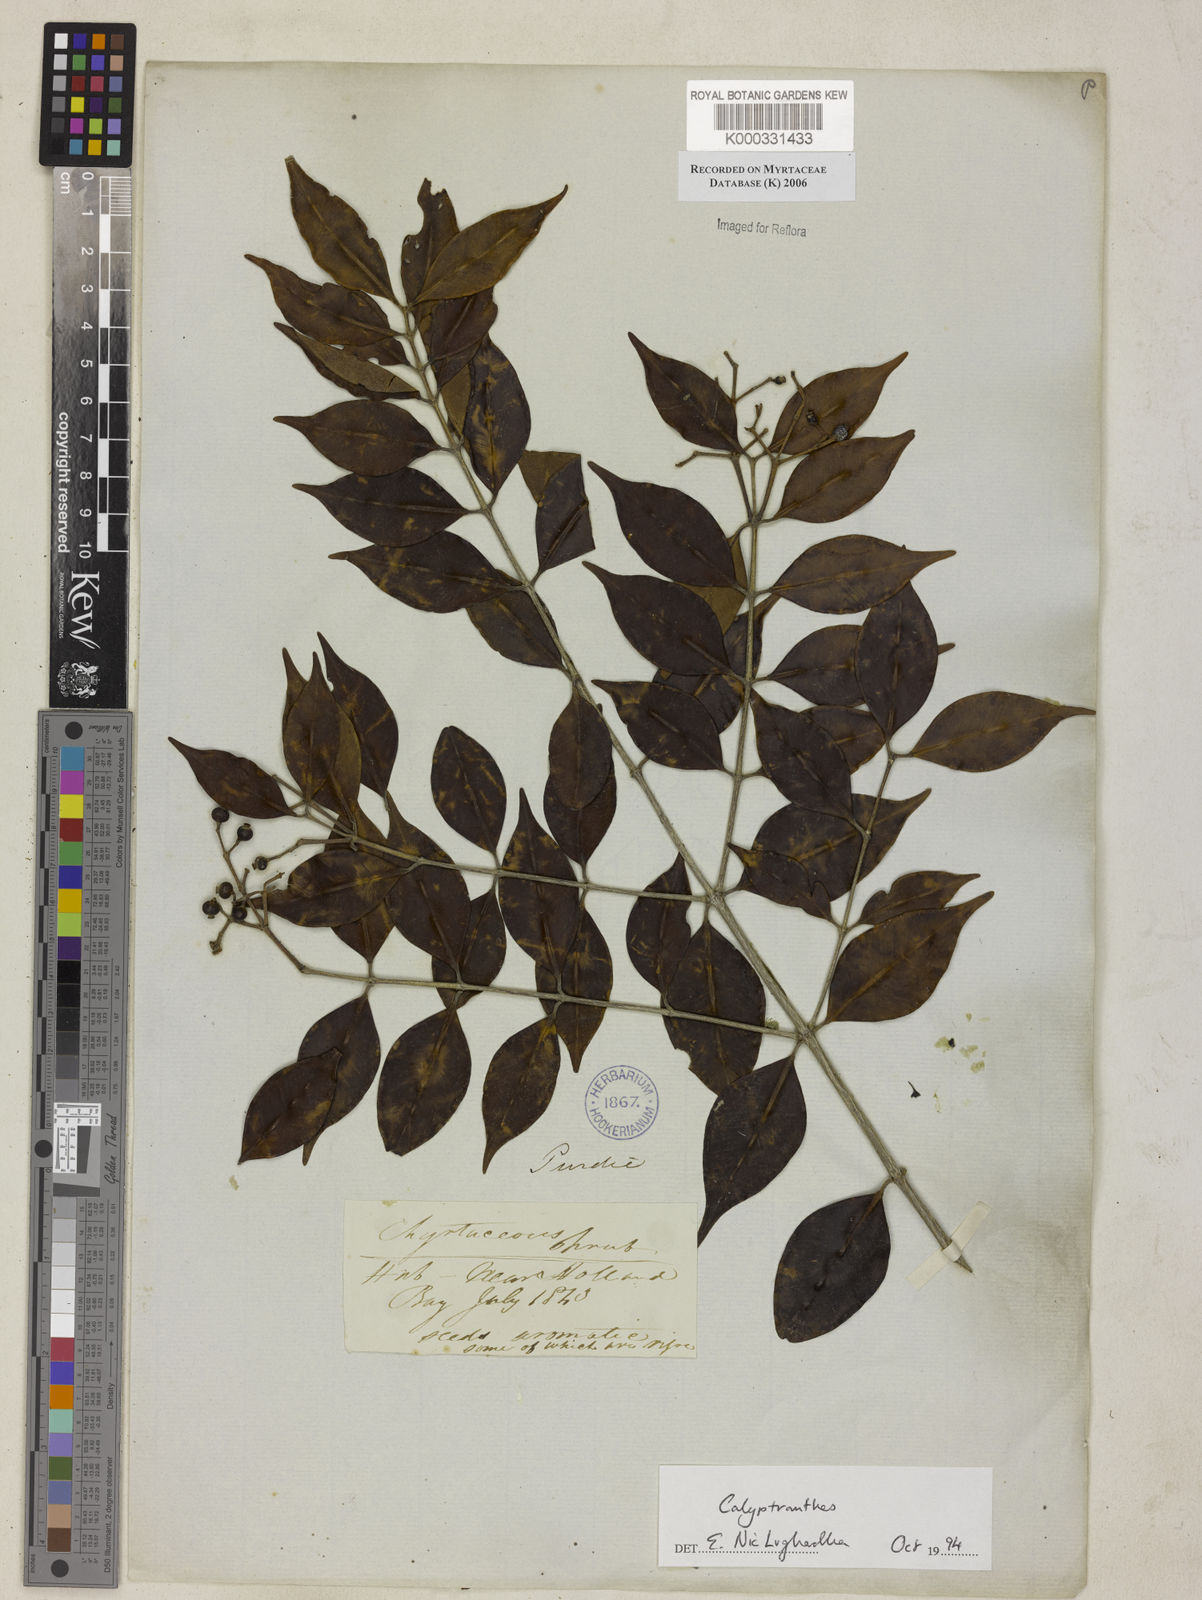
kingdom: Plantae
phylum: Tracheophyta
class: Magnoliopsida
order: Myrtales
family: Myrtaceae
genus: Calyptranthes
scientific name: Calyptranthes
